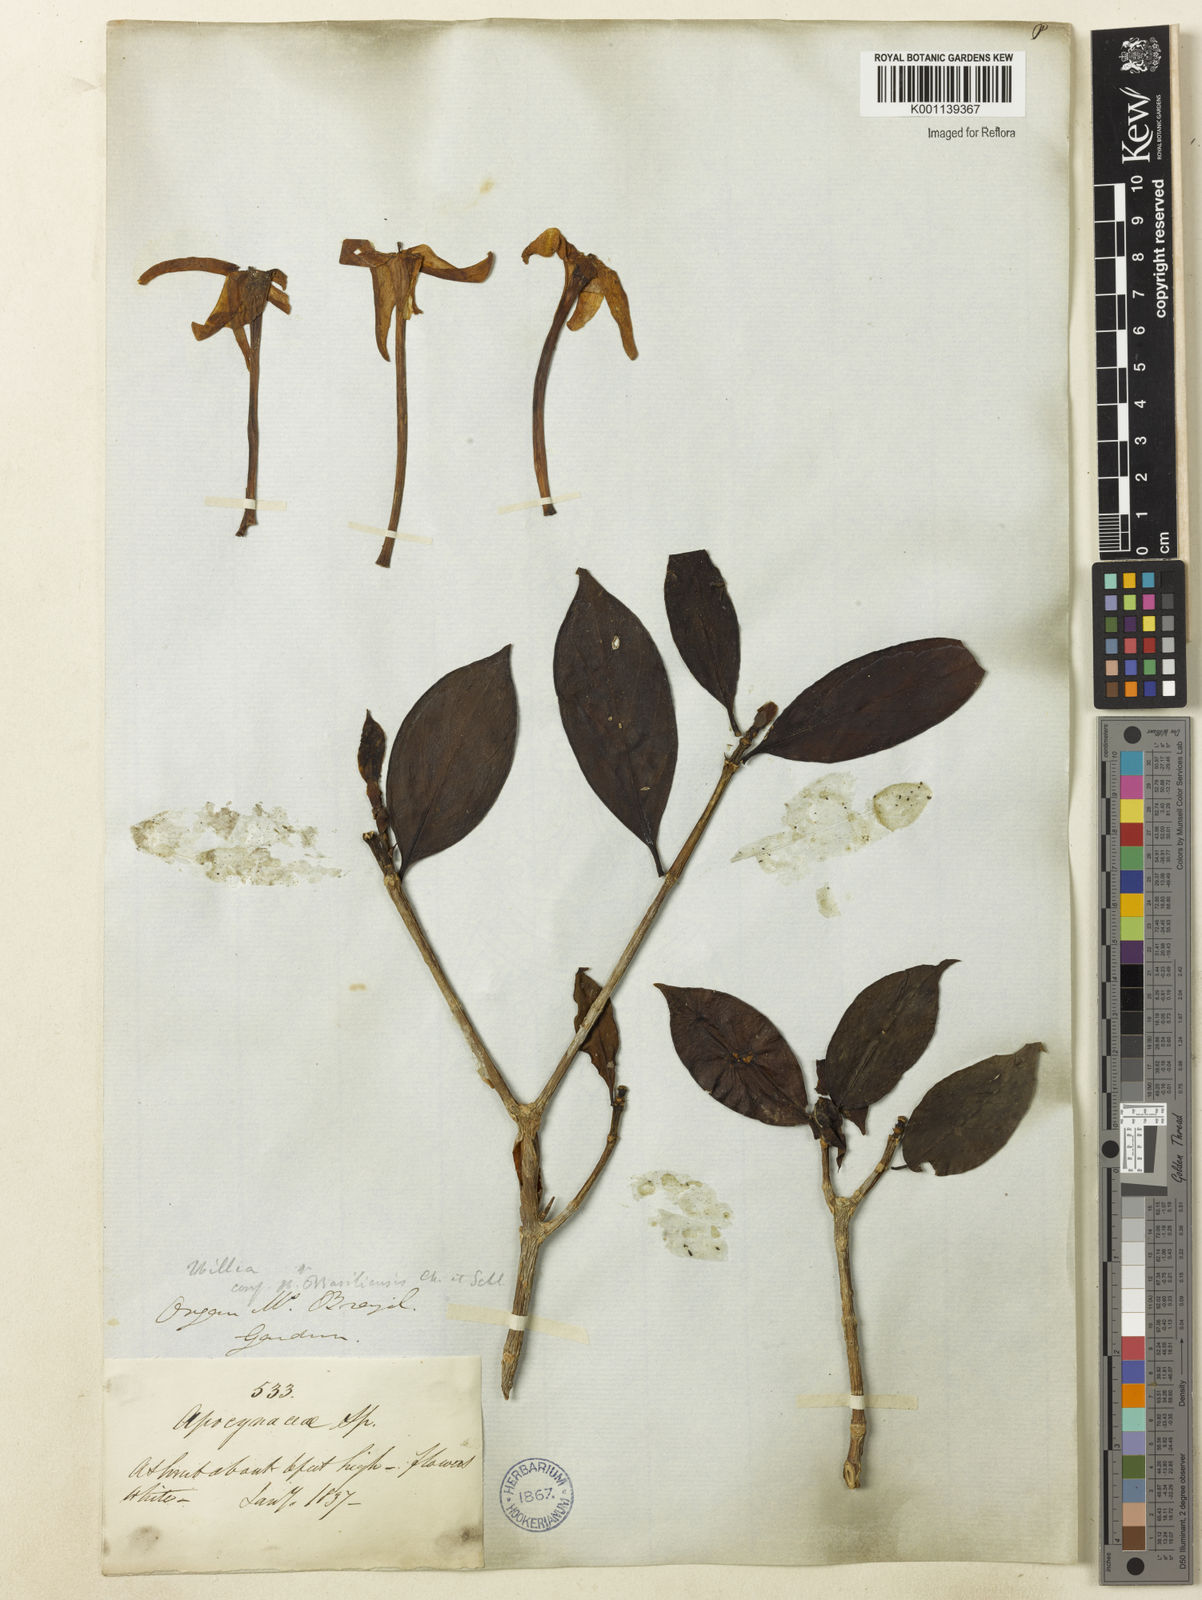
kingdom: Plantae
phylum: Tracheophyta
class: Magnoliopsida
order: Gentianales
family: Rubiaceae
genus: Hillia
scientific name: Hillia parasitica
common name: Morning star
